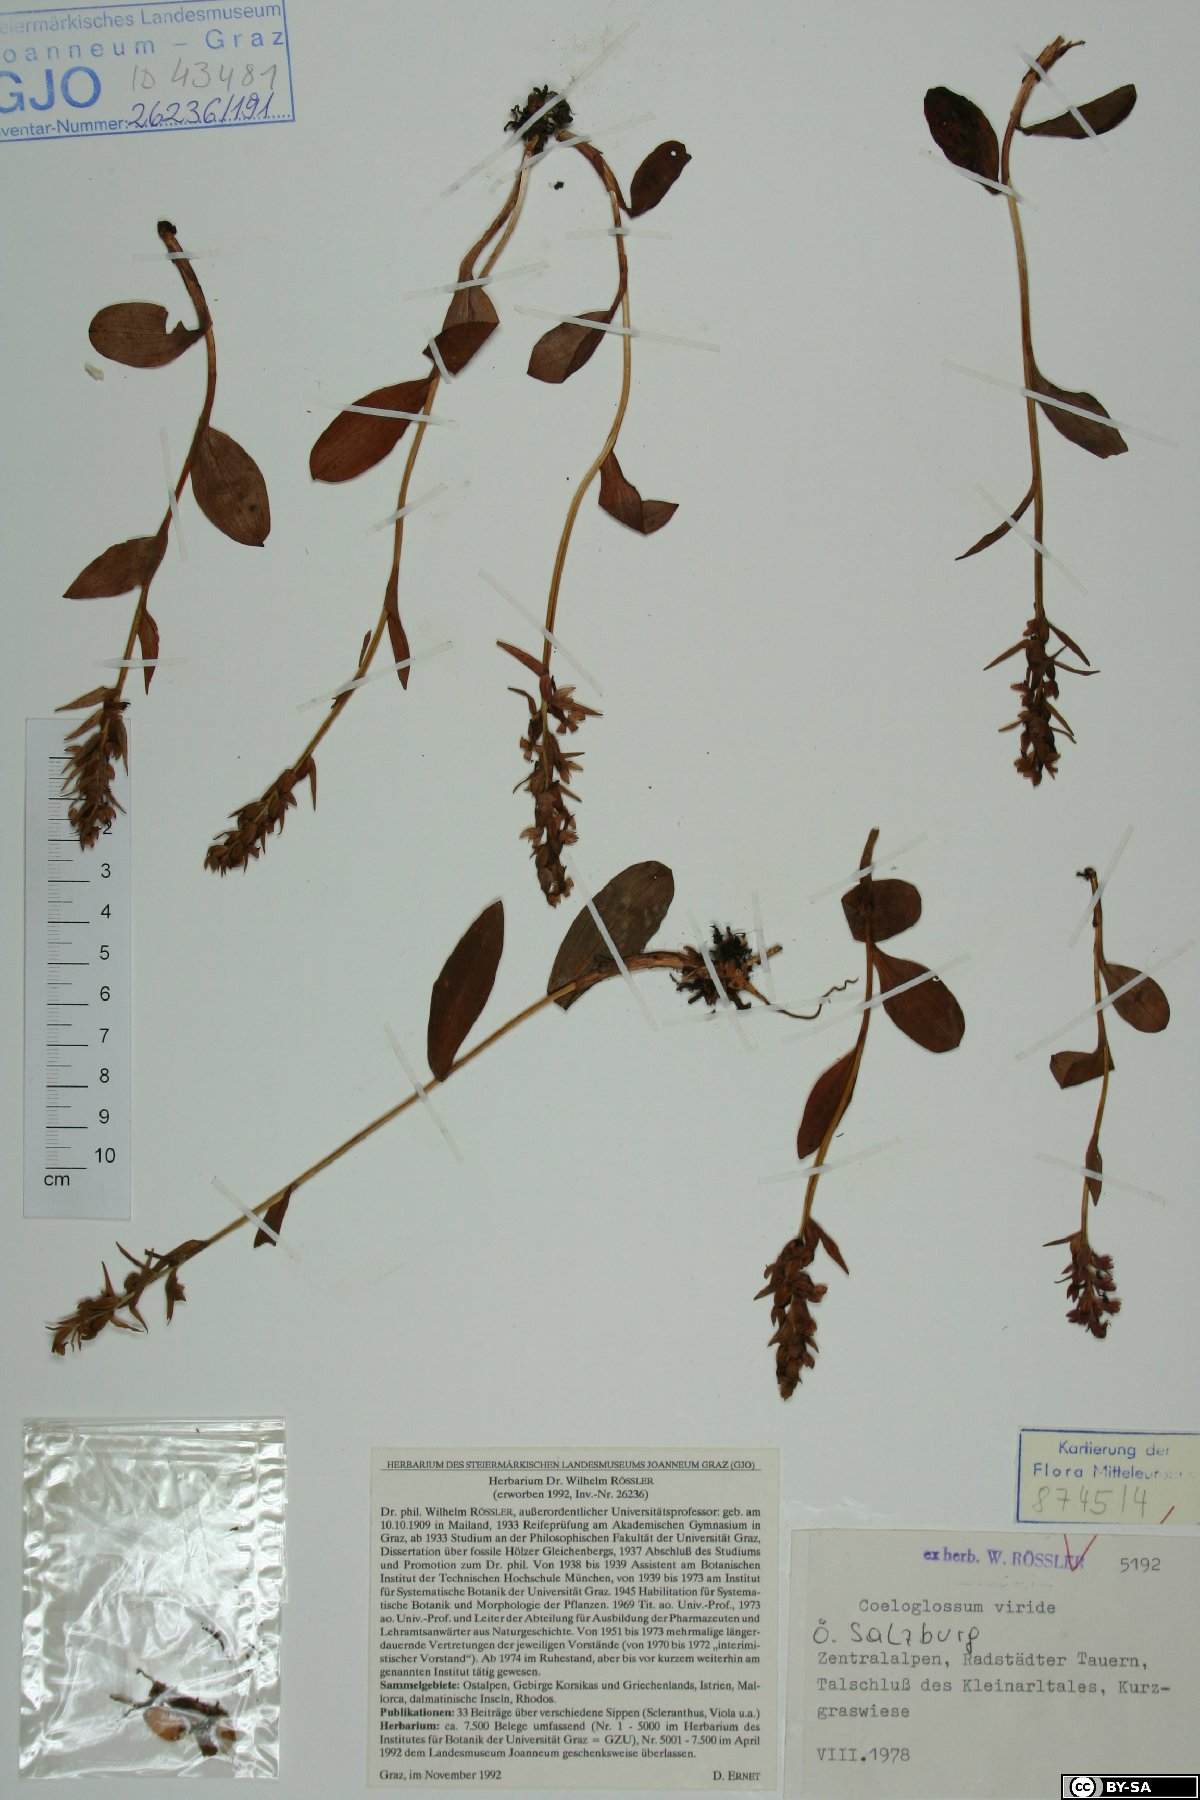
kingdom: Plantae
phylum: Tracheophyta
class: Liliopsida
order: Asparagales
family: Orchidaceae
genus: Dactylorhiza
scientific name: Dactylorhiza viridis
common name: Longbract frog orchid
